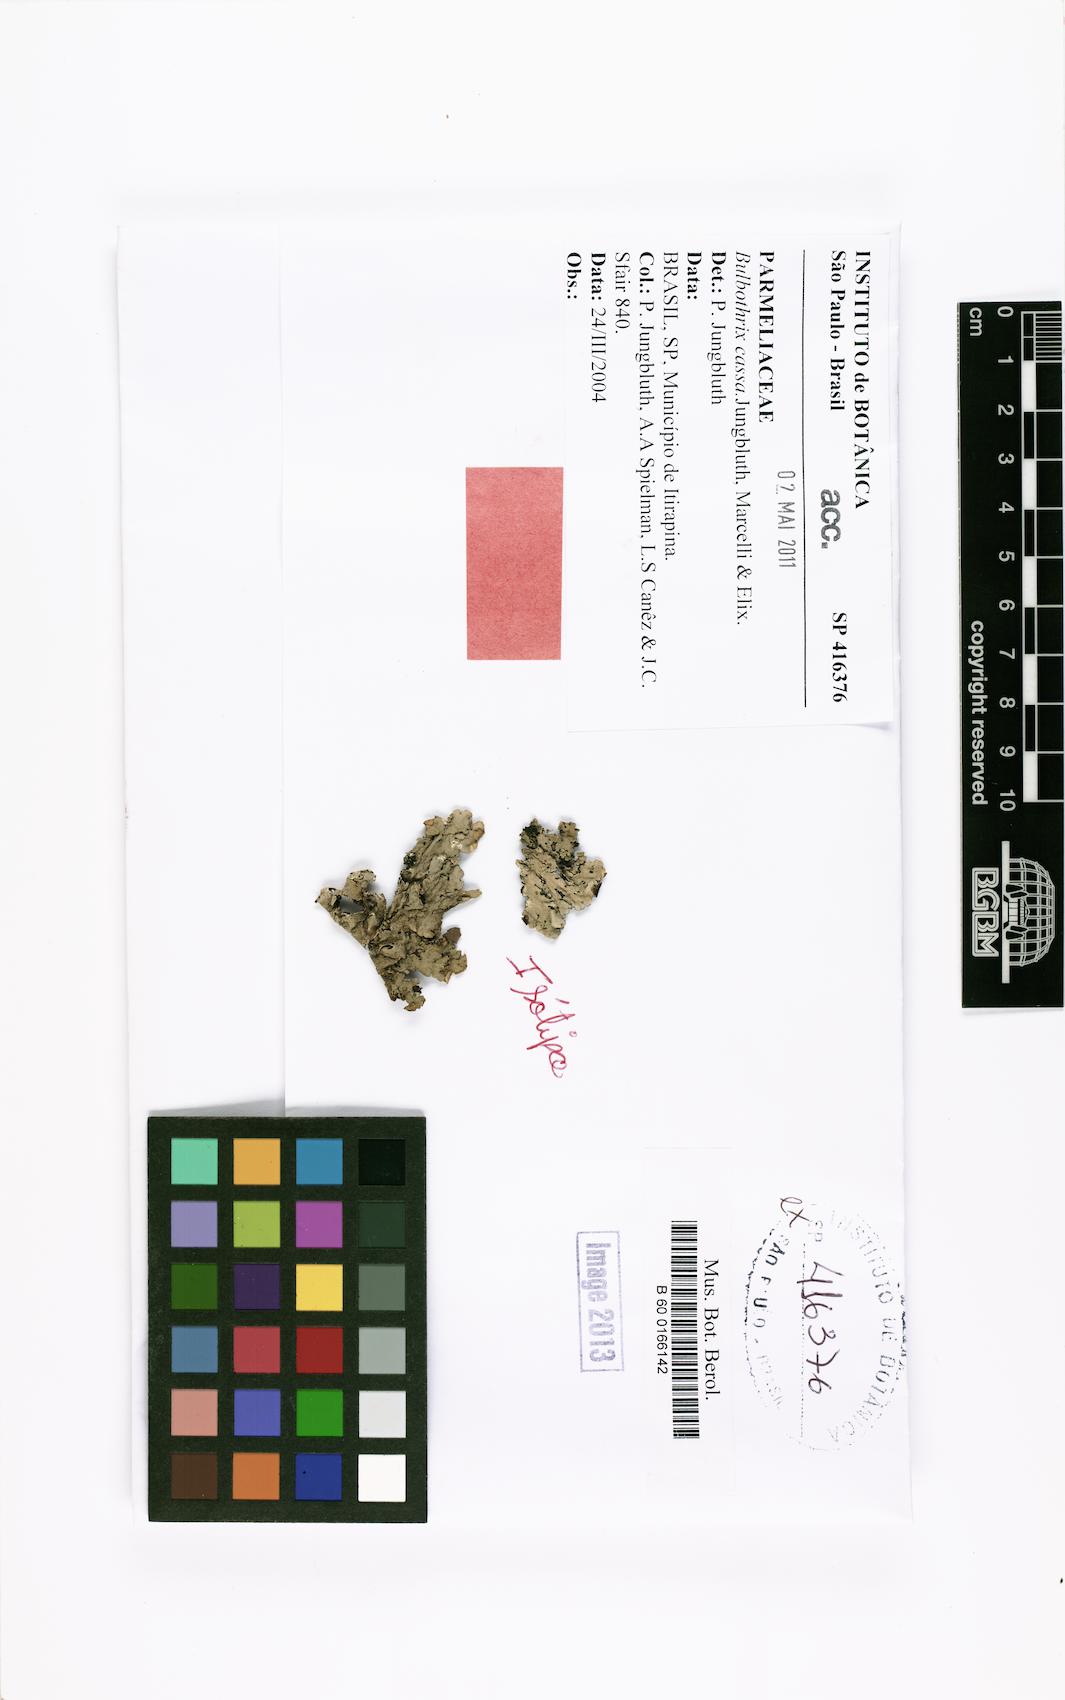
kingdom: Fungi
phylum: Ascomycota
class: Lecanoromycetes
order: Lecanorales
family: Parmeliaceae
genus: Bulbothrix
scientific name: Bulbothrix cassa
